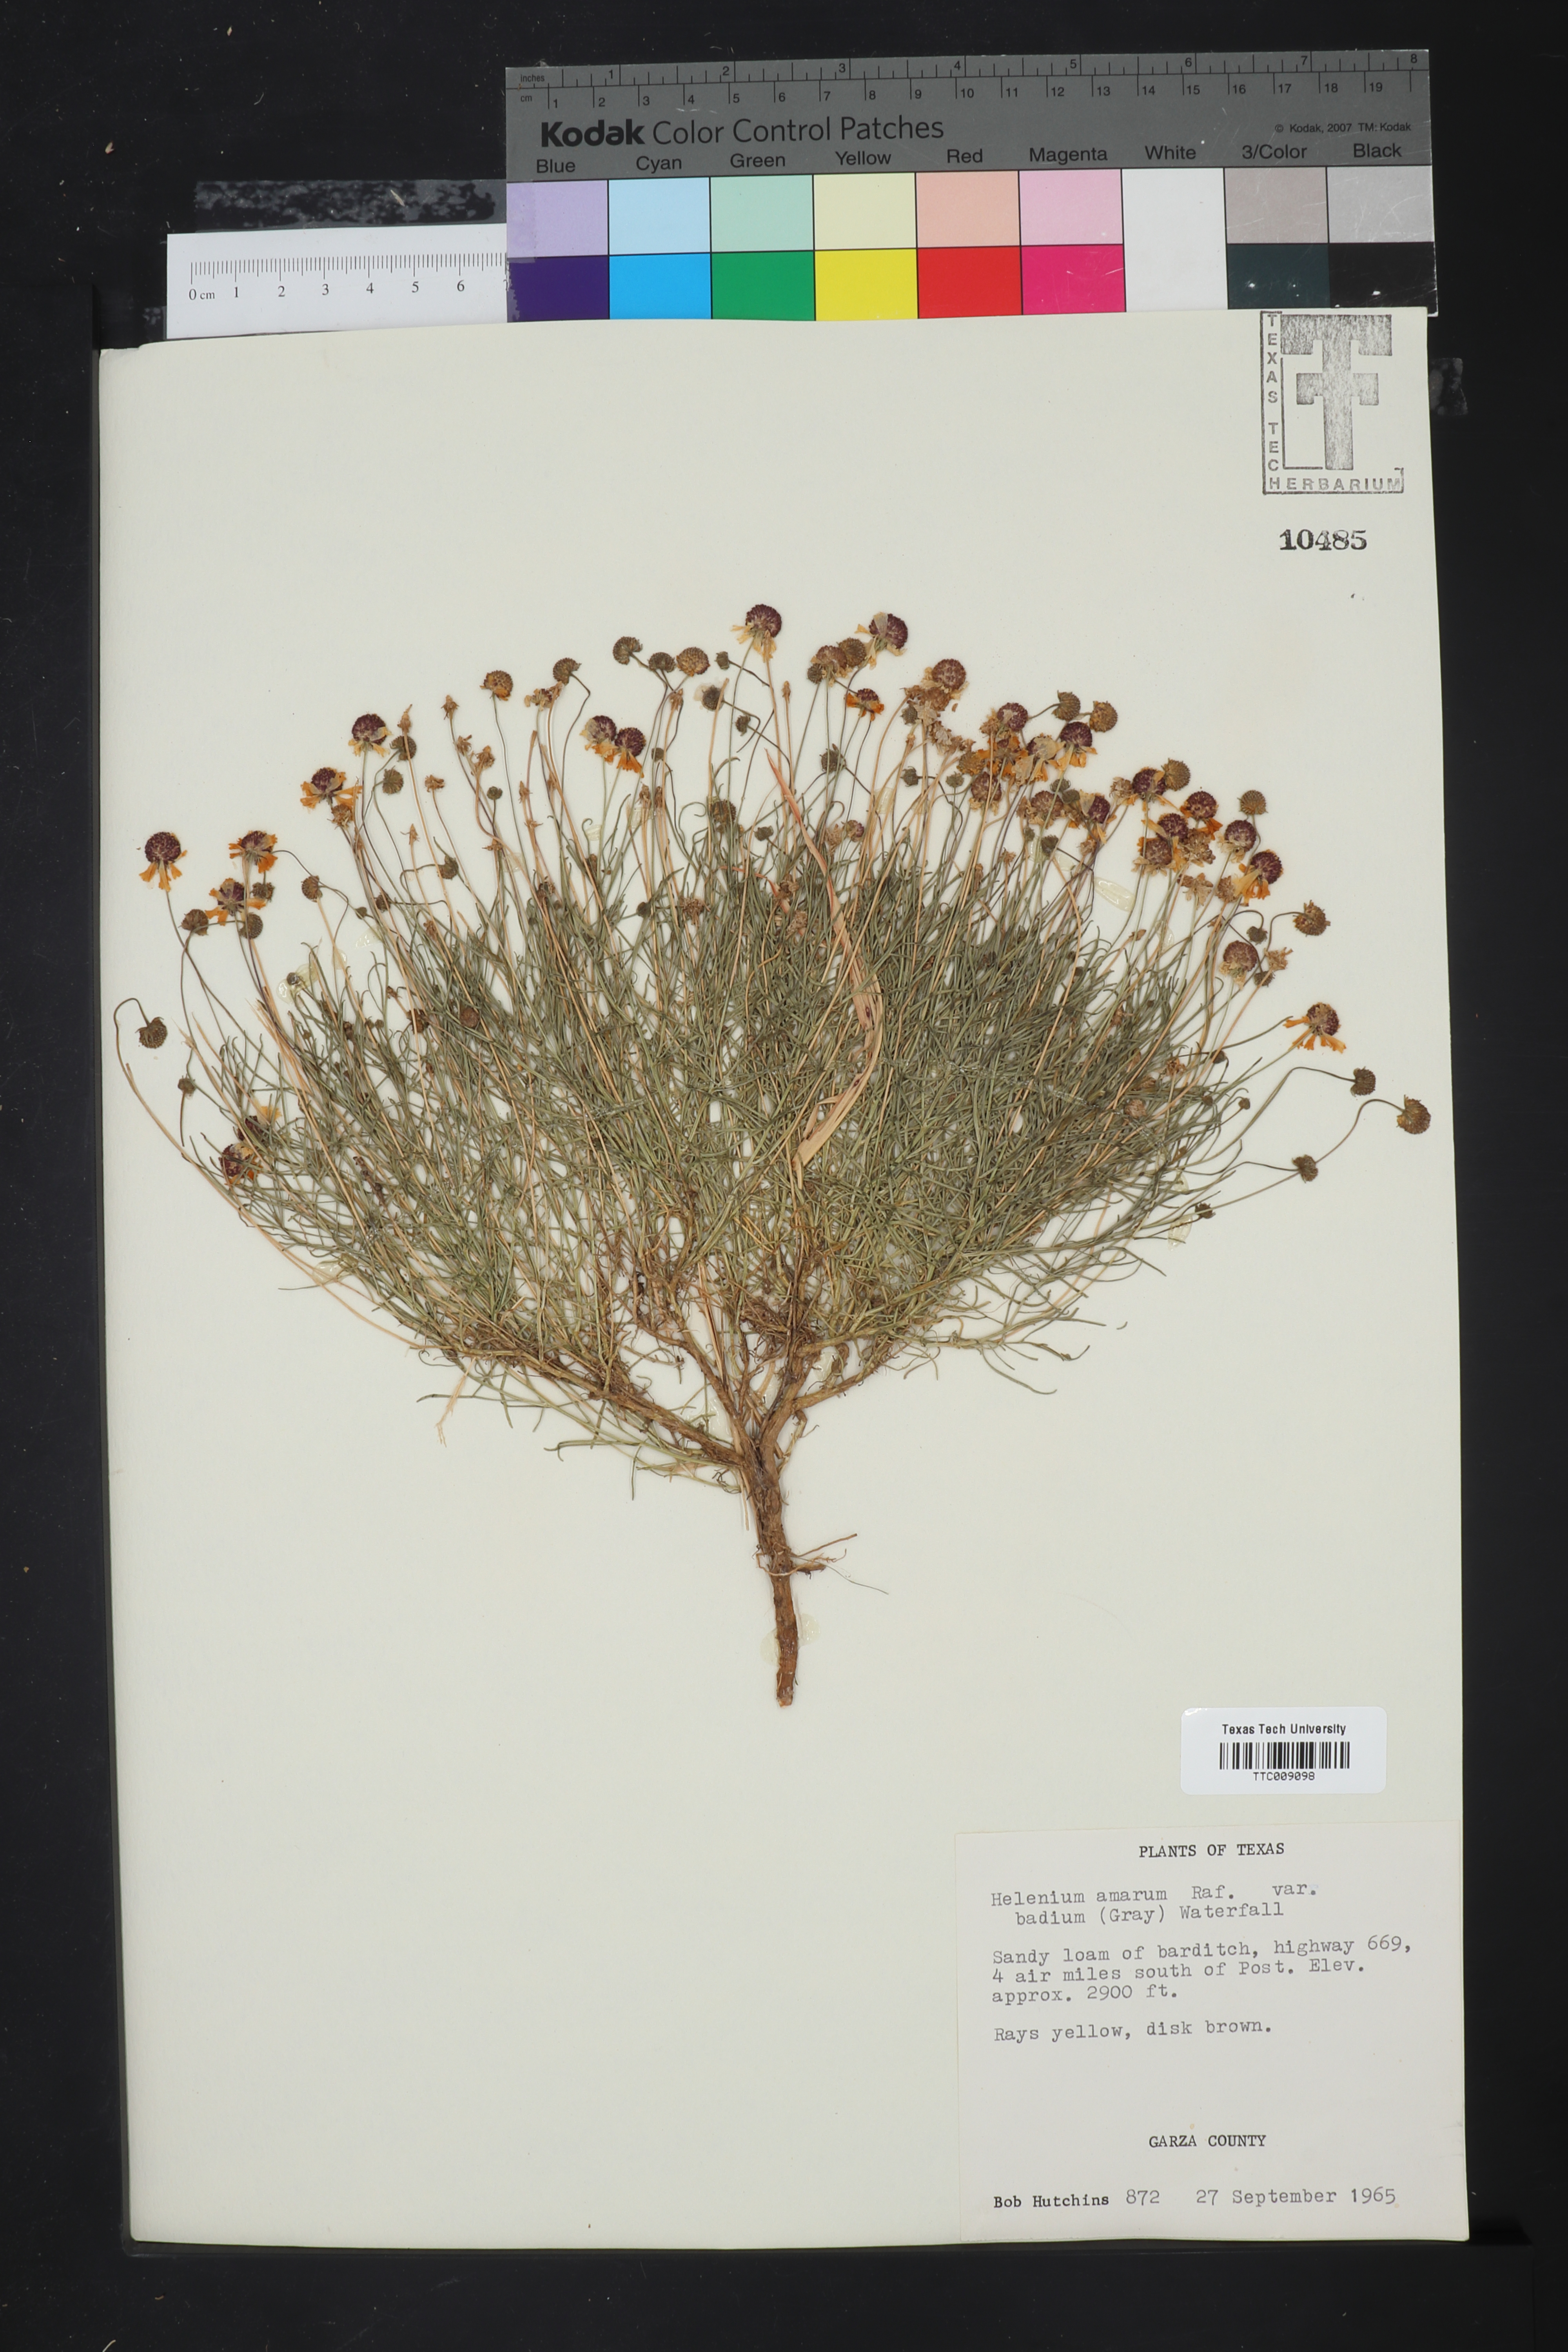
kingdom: Plantae
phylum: Tracheophyta
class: Magnoliopsida
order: Asterales
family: Asteraceae
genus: Helenium
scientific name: Helenium amarum
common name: Bitter sneezeweed
